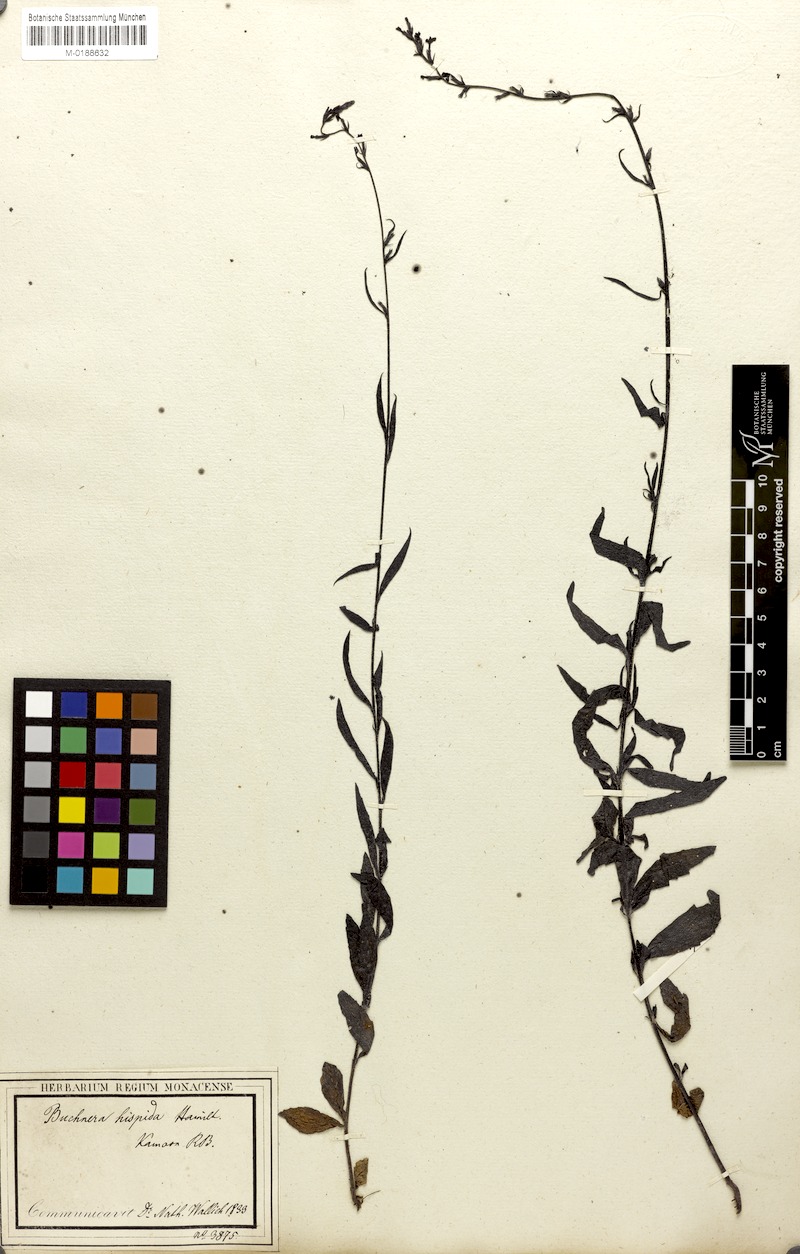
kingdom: Plantae
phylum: Tracheophyta
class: Magnoliopsida
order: Lamiales
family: Orobanchaceae
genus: Buchnera
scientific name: Buchnera hispida
